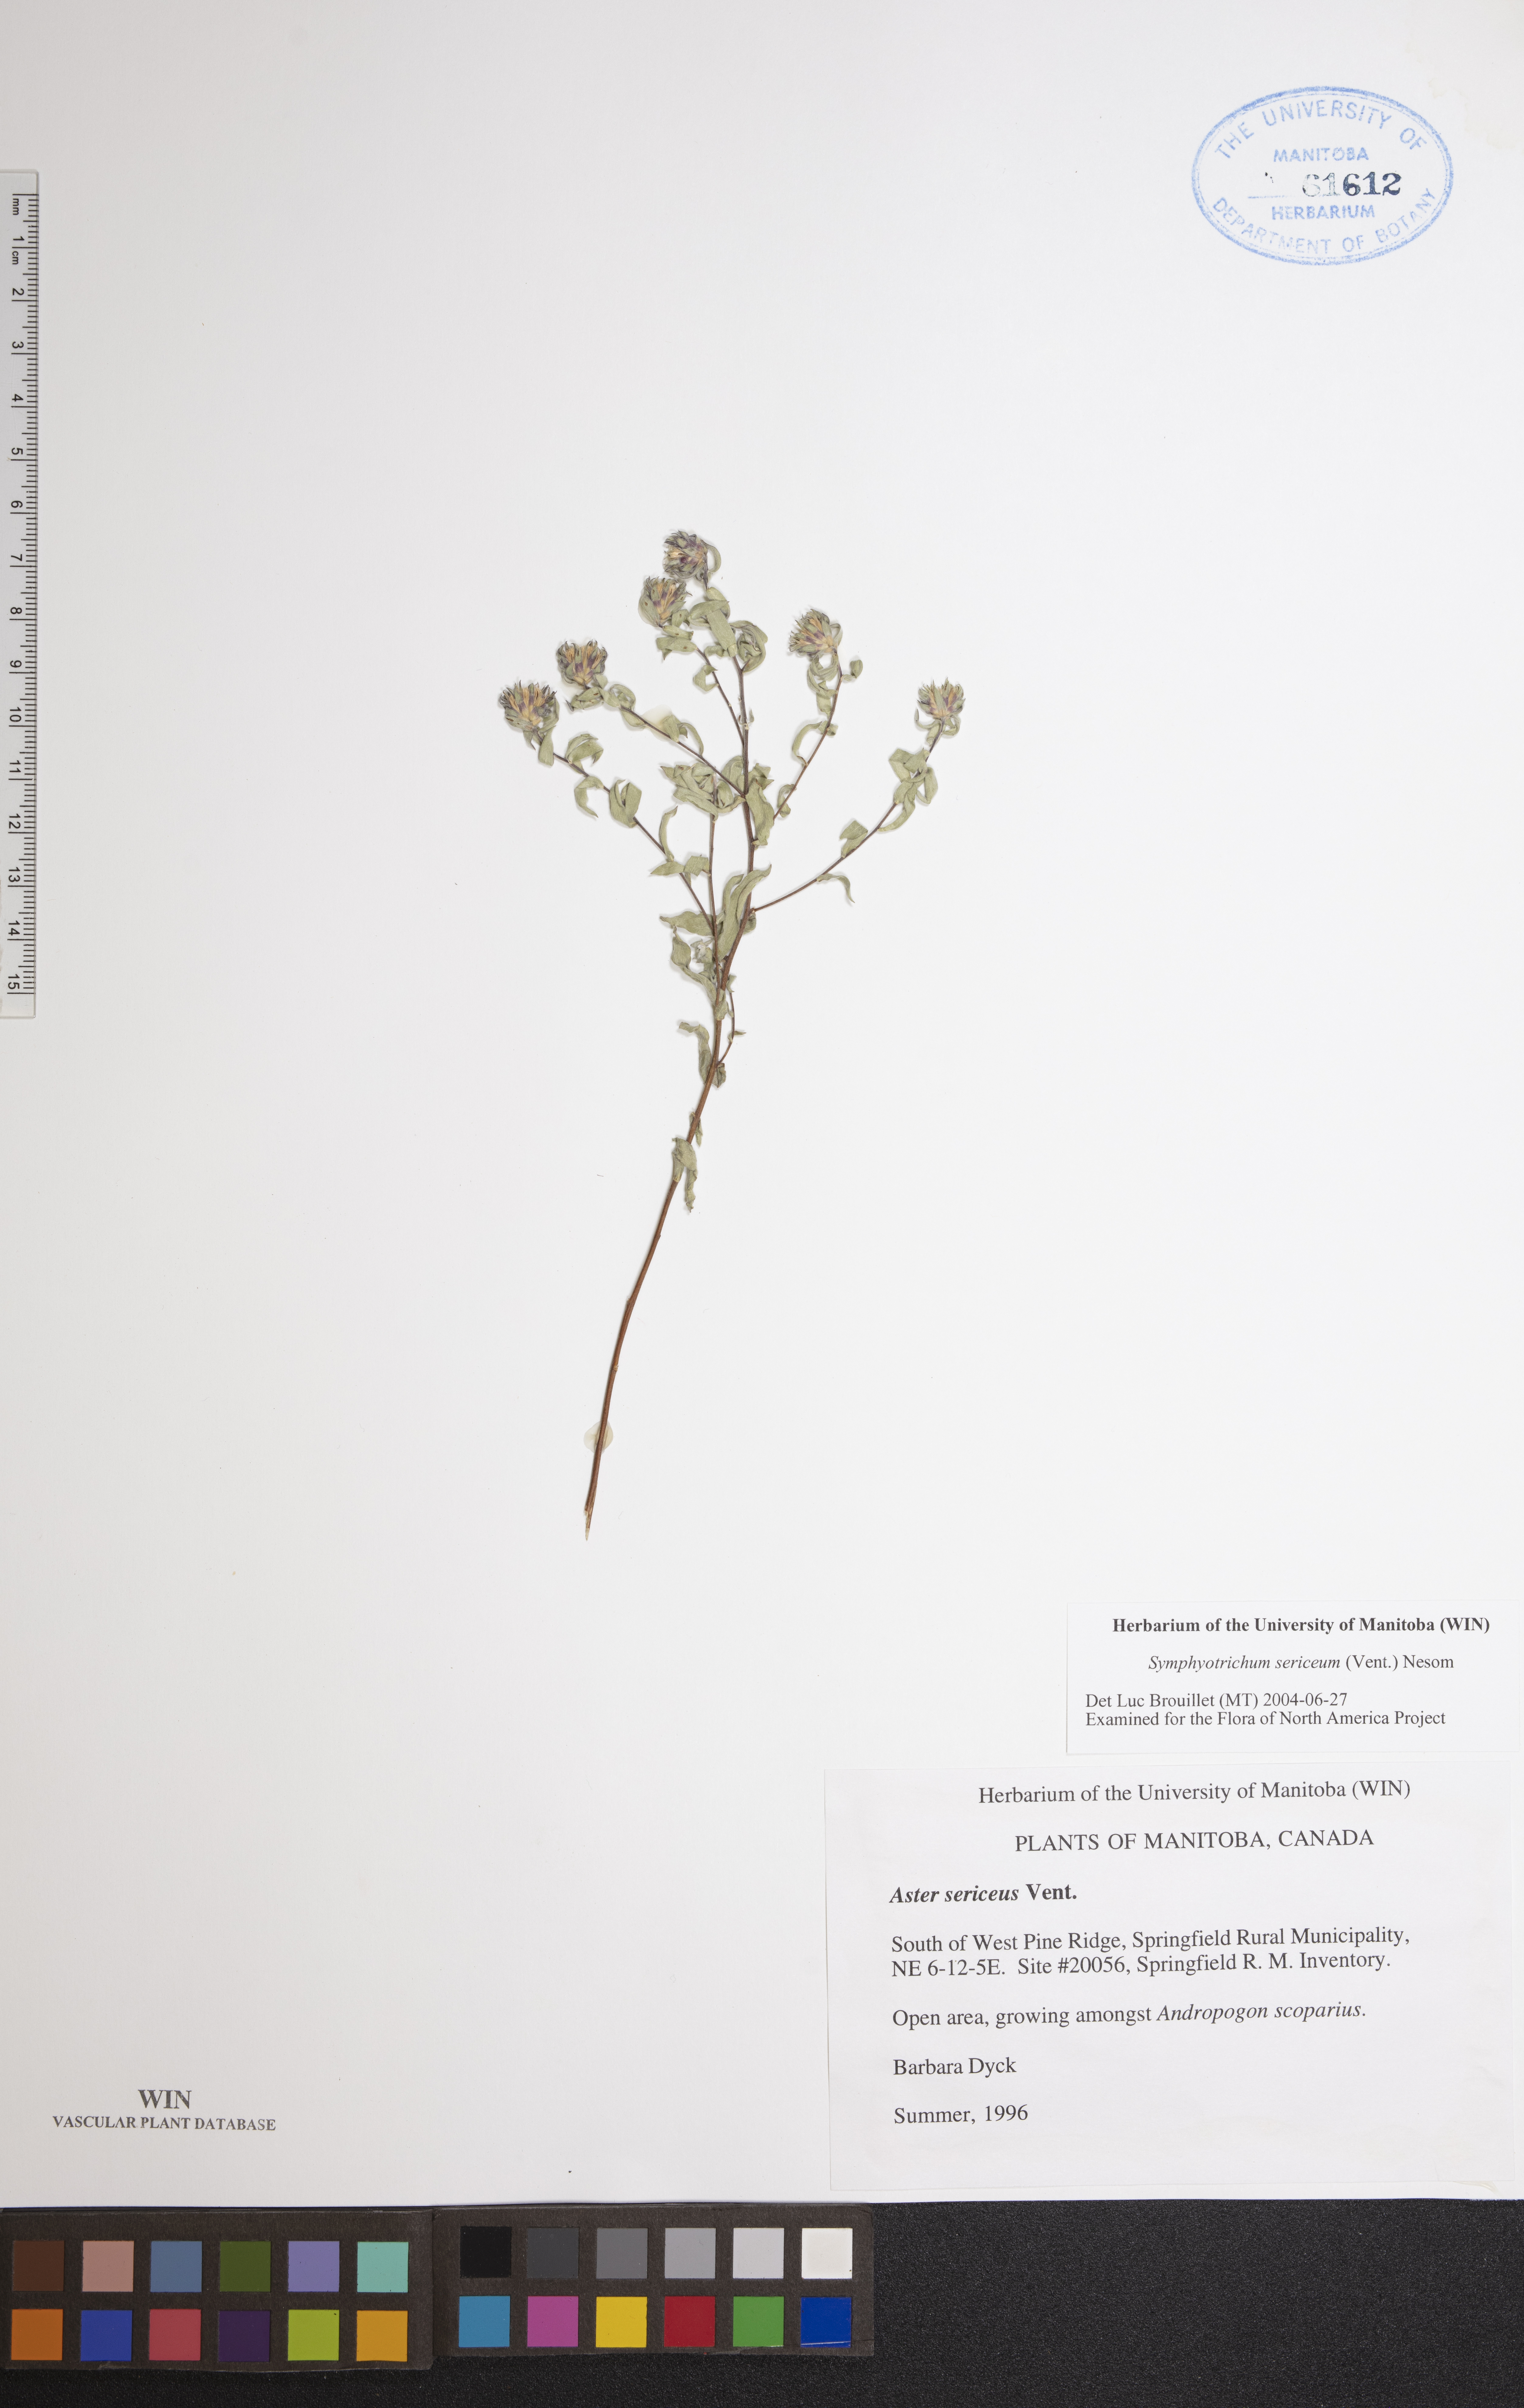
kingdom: Plantae
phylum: Tracheophyta
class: Magnoliopsida
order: Asterales
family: Asteraceae
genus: Symphyotrichum
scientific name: Symphyotrichum sericeum
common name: Silky aster
